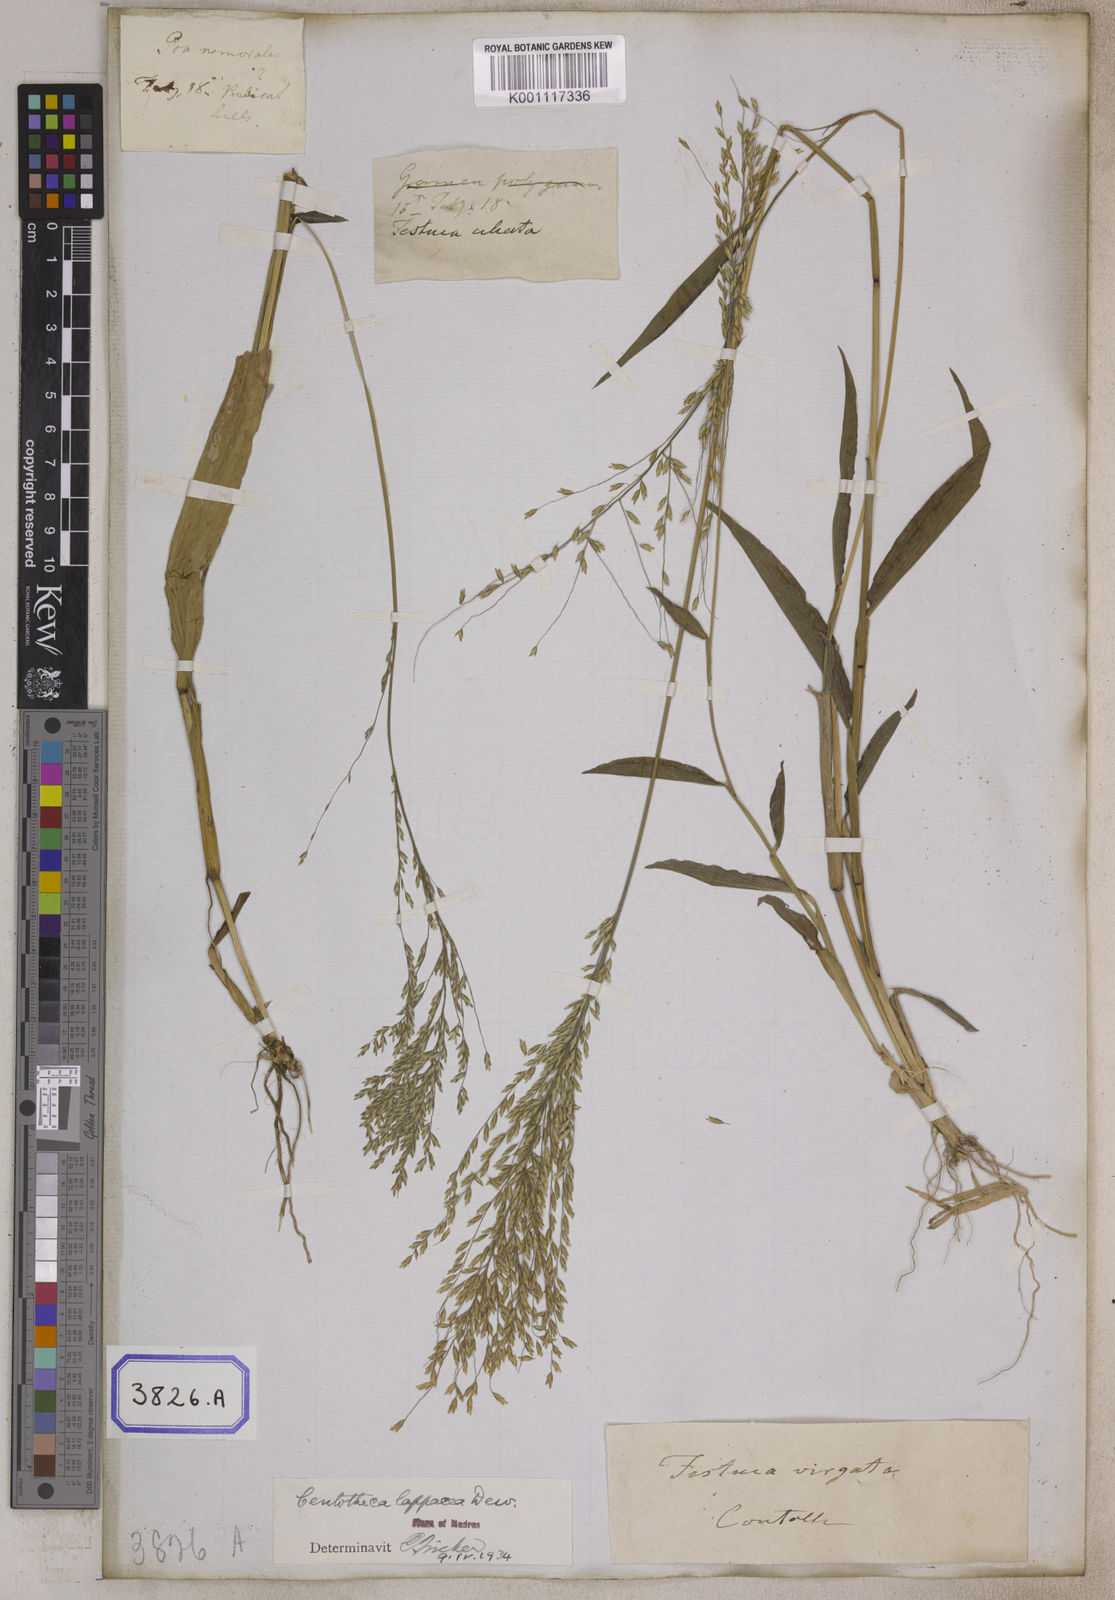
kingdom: Plantae
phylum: Tracheophyta
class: Liliopsida
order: Poales
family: Poaceae
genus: Centotheca
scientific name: Centotheca lappacea
